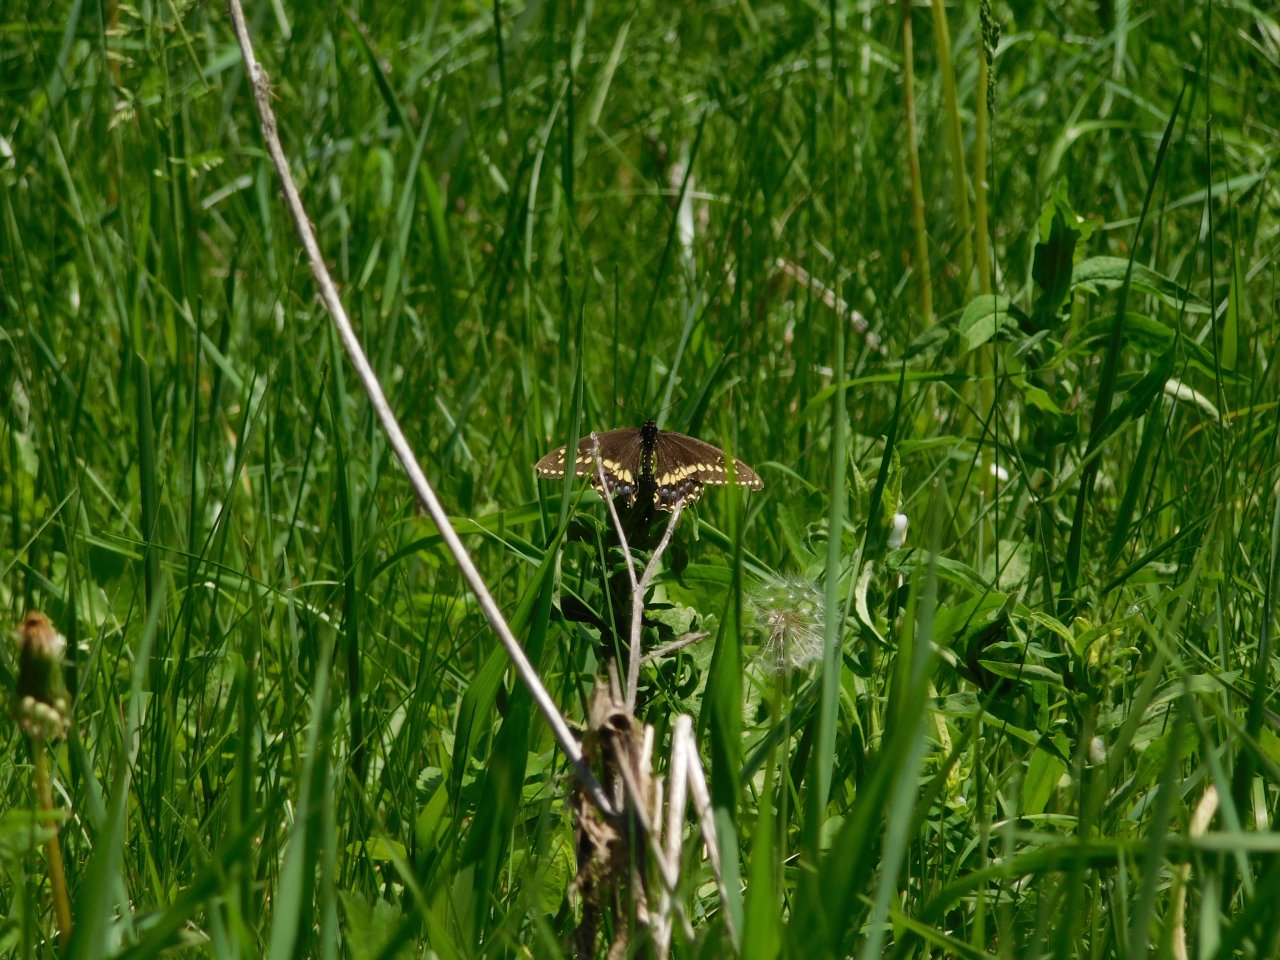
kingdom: Animalia
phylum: Arthropoda
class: Insecta
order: Lepidoptera
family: Papilionidae
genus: Papilio
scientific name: Papilio polyxenes
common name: Black Swallowtail
